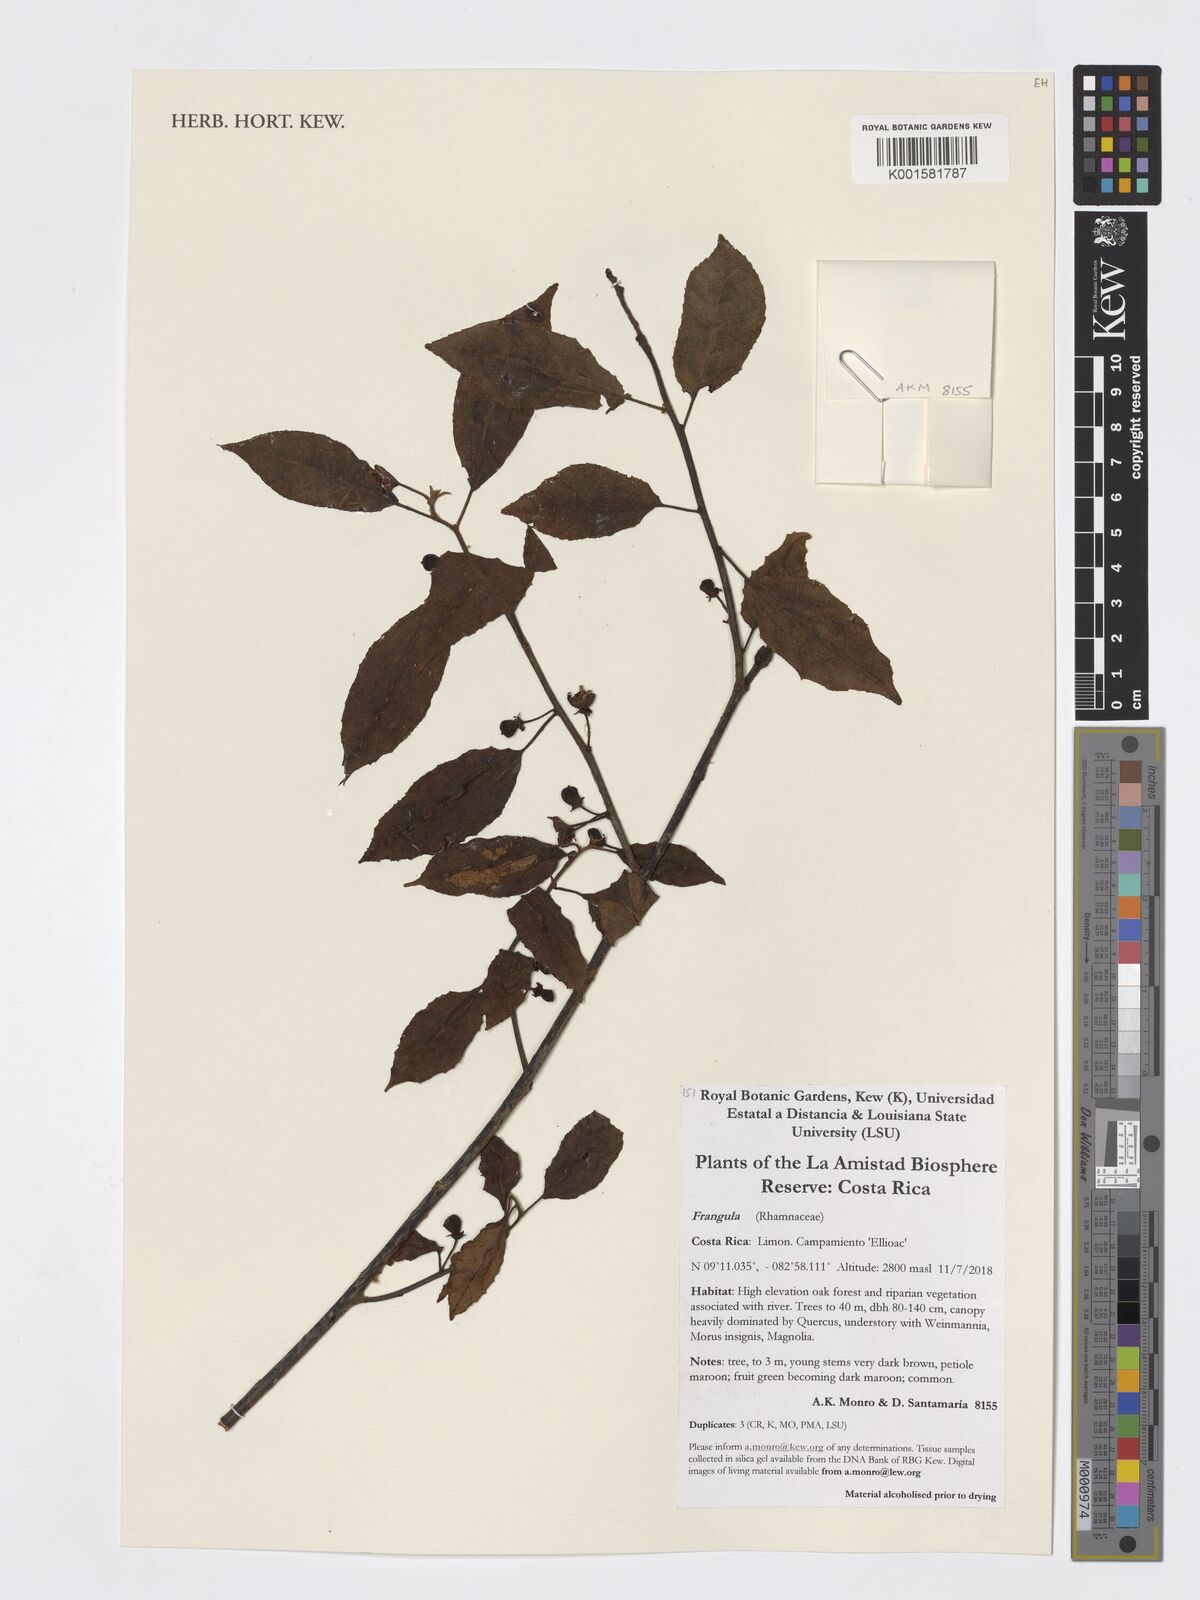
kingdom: Plantae
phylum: Tracheophyta
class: Magnoliopsida
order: Rosales
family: Rhamnaceae
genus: Frangula
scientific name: Frangula
